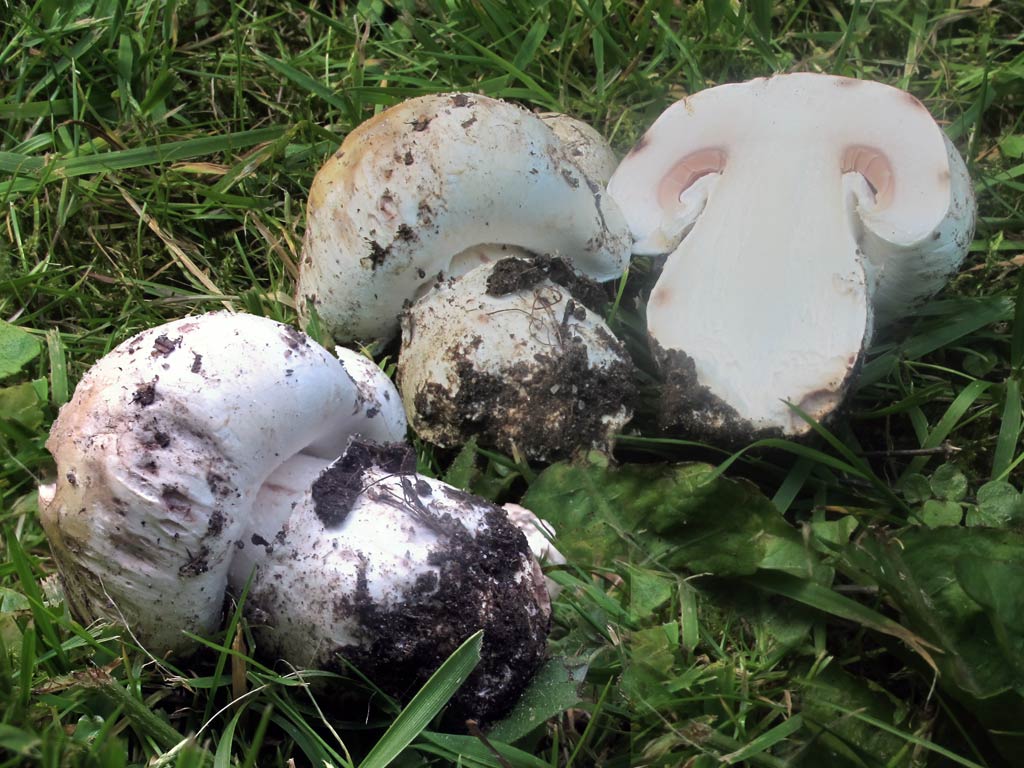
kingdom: Fungi
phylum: Basidiomycota
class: Agaricomycetes
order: Agaricales
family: Agaricaceae
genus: Agaricus
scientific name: Agaricus bitorquis
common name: vej-champignon
